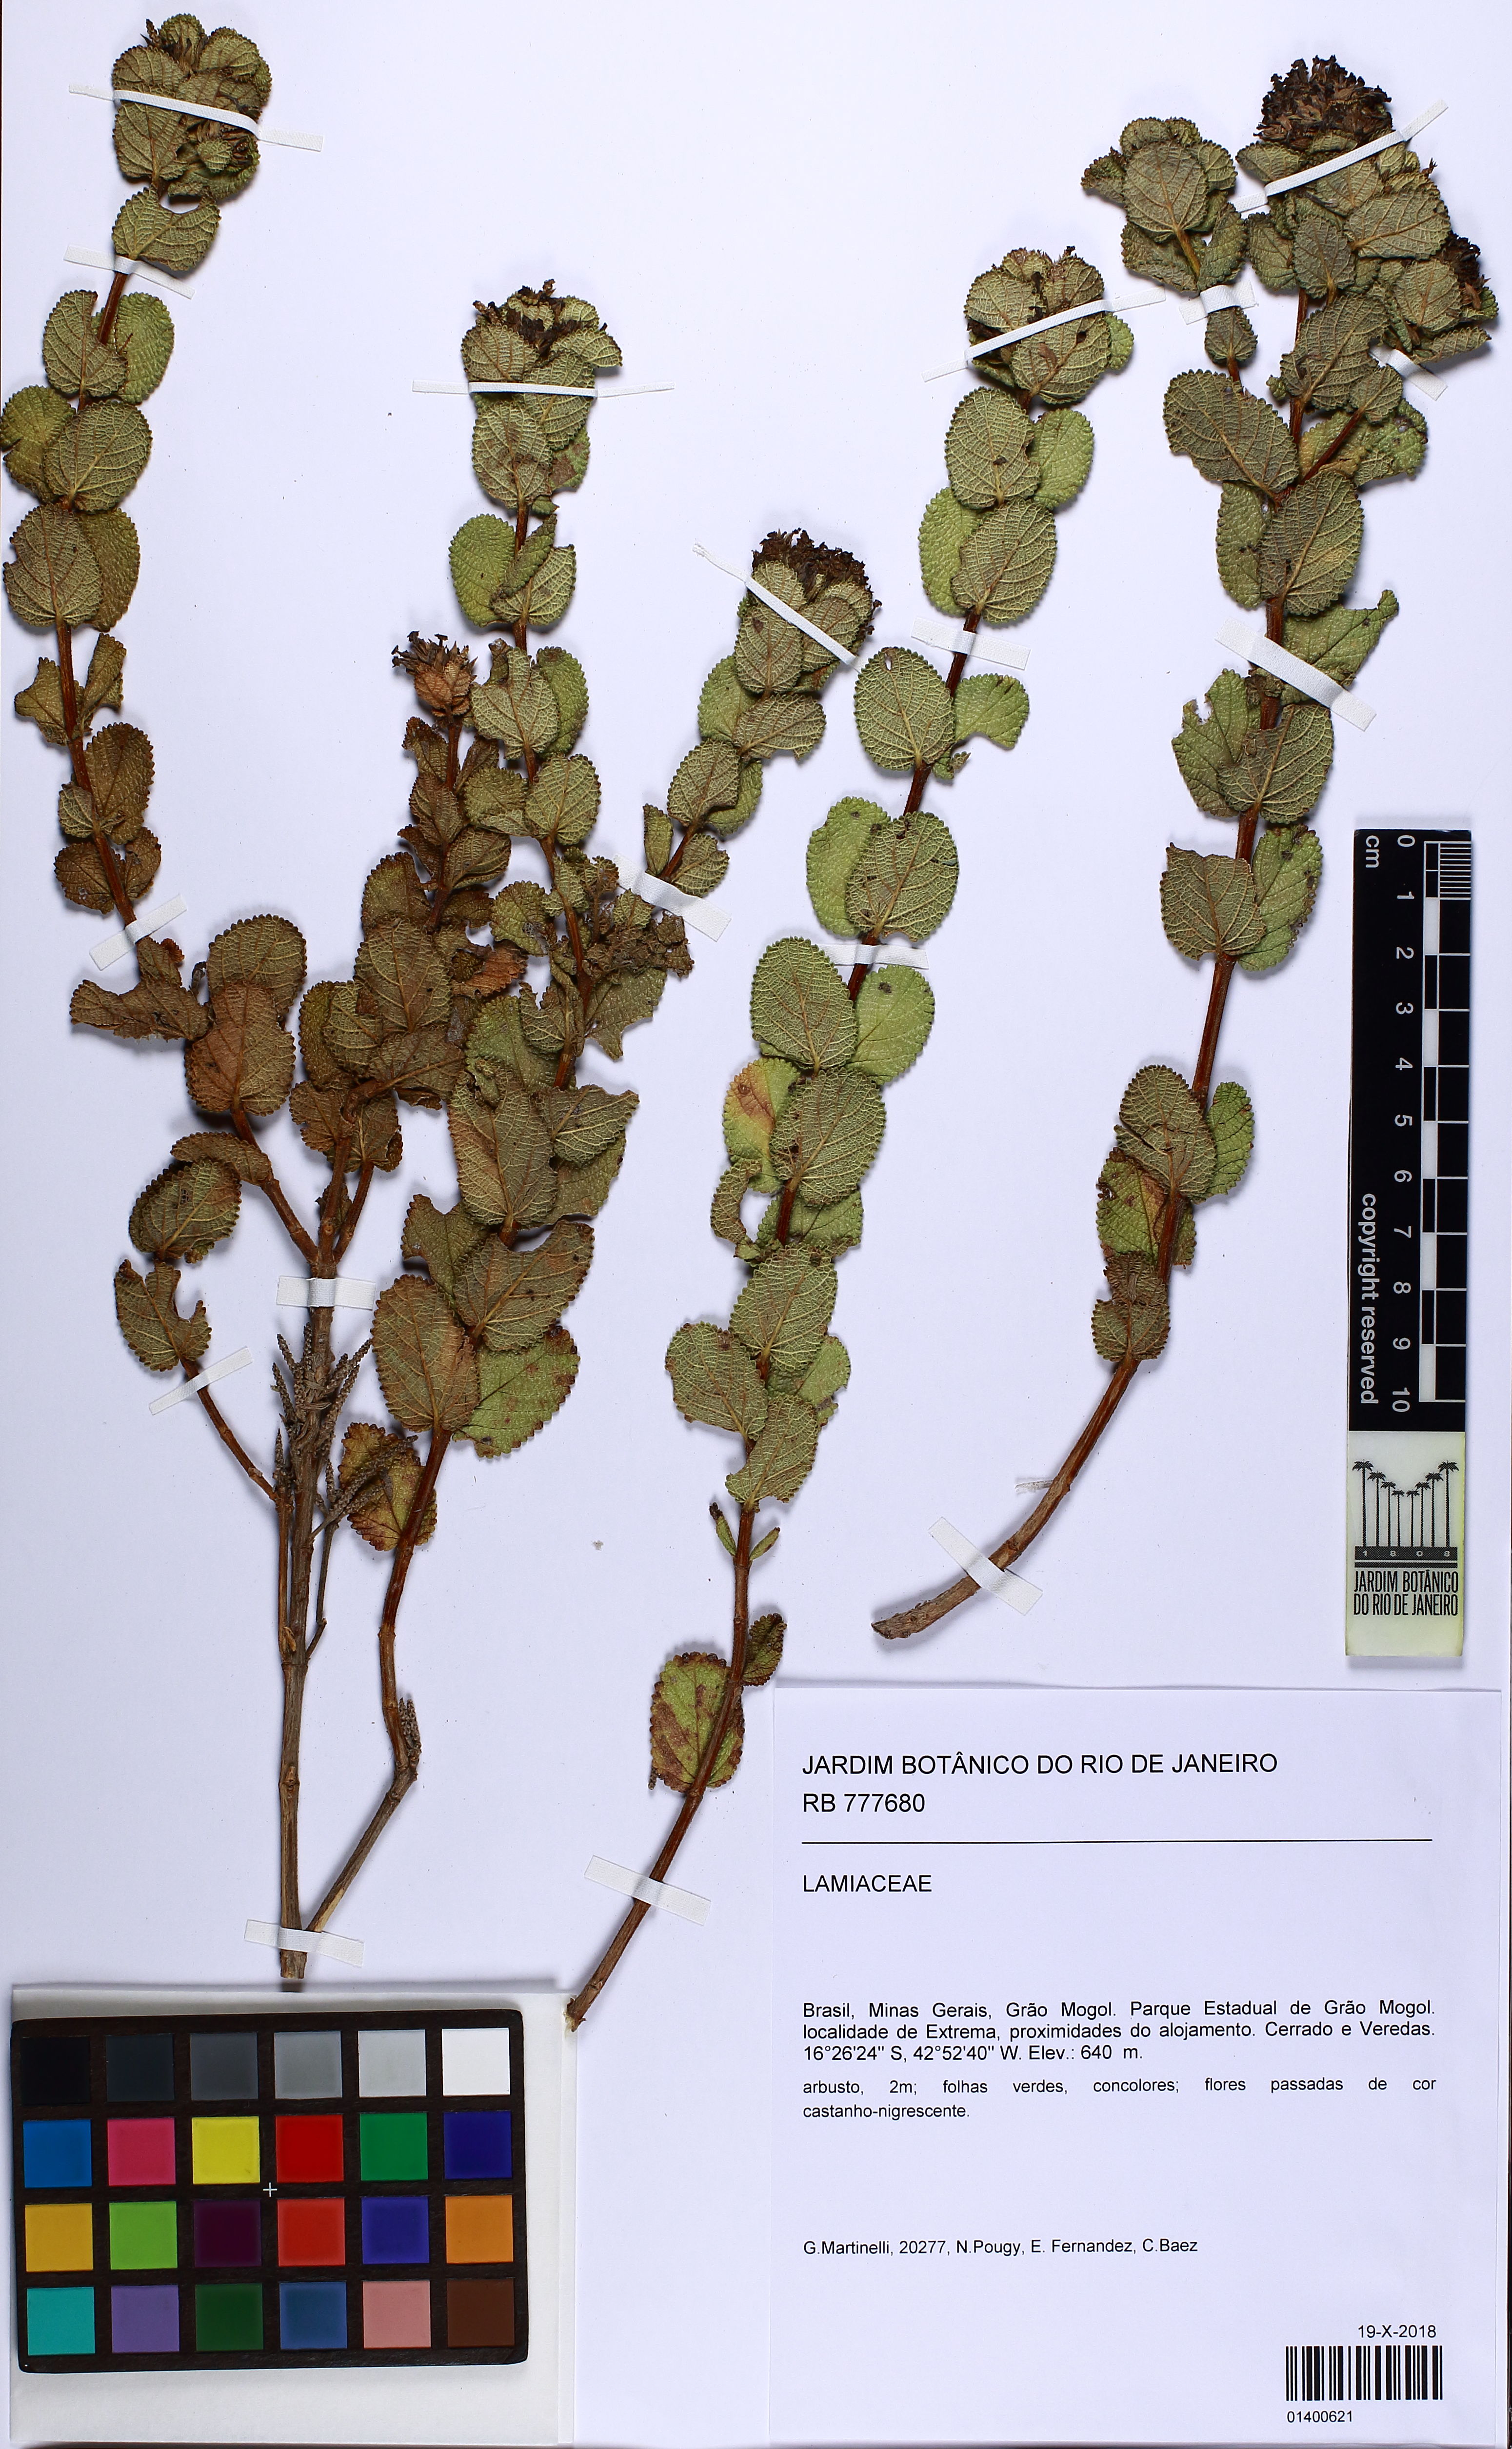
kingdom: Plantae
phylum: Tracheophyta
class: Magnoliopsida
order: Lamiales
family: Lamiaceae
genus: Oocephalus
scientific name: Oocephalus lacunosus
